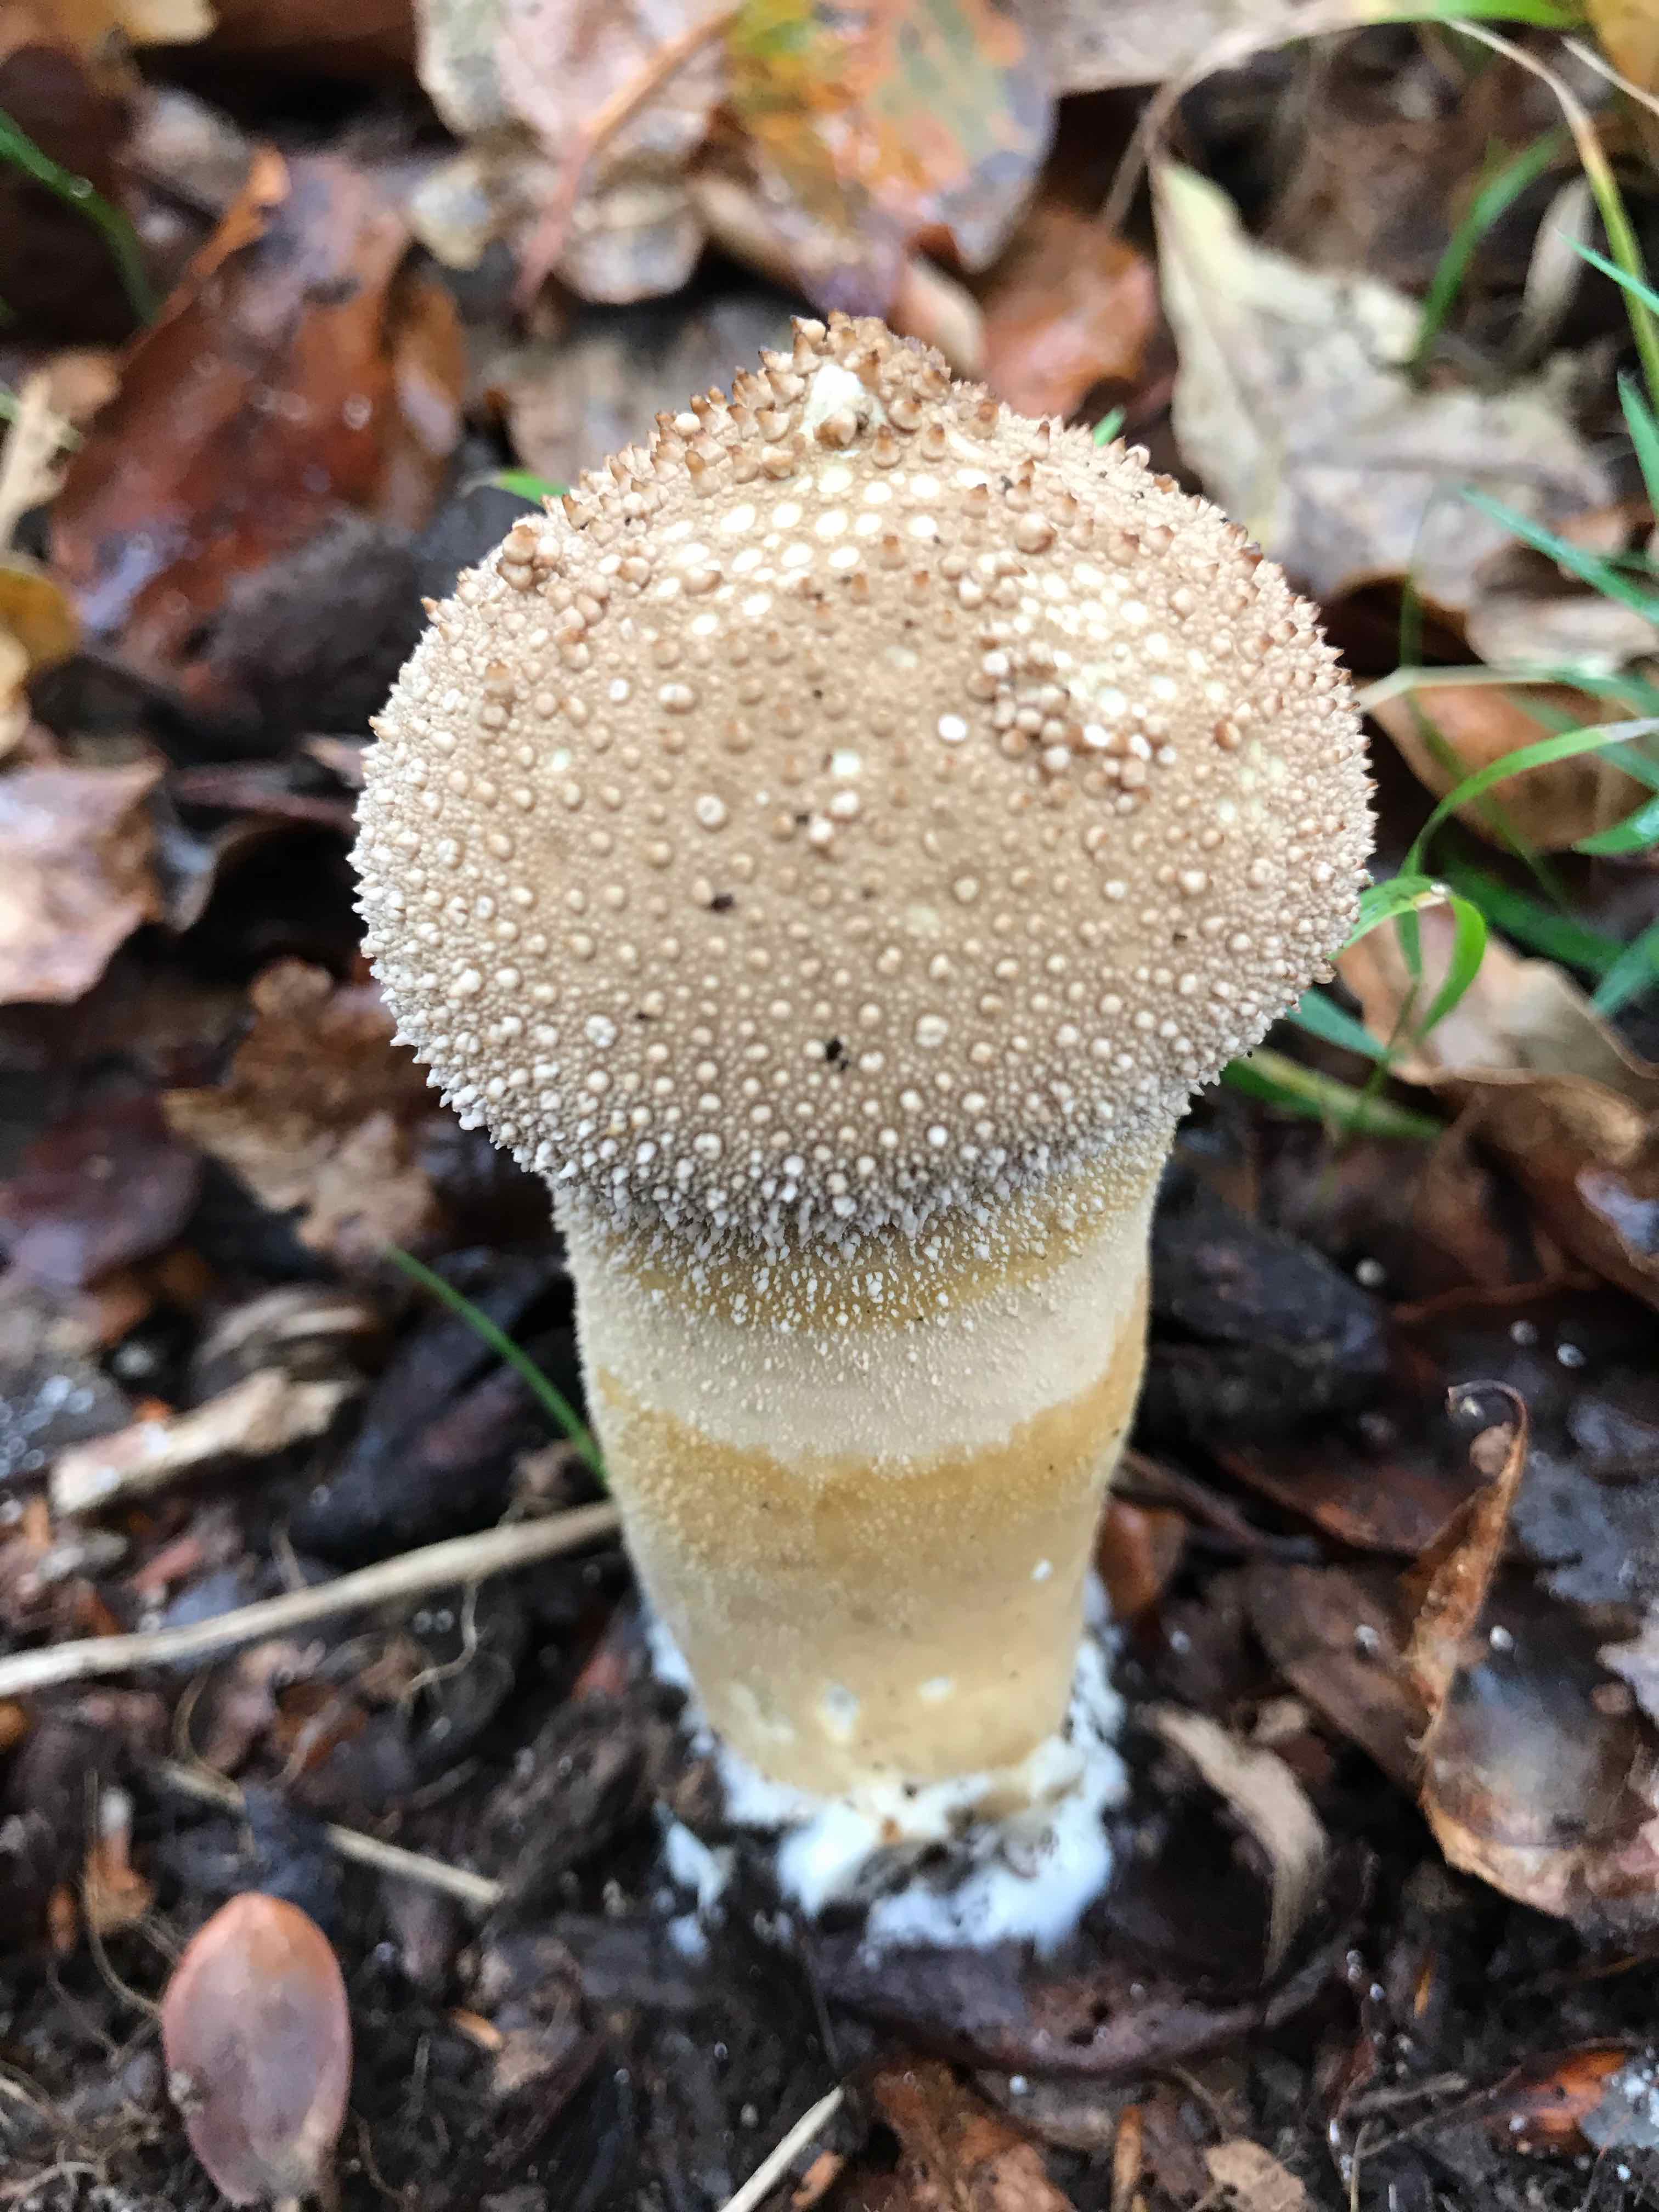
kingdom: Fungi
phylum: Basidiomycota
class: Agaricomycetes
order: Agaricales
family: Lycoperdaceae
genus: Lycoperdon
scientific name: Lycoperdon perlatum
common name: krystal-støvbold
